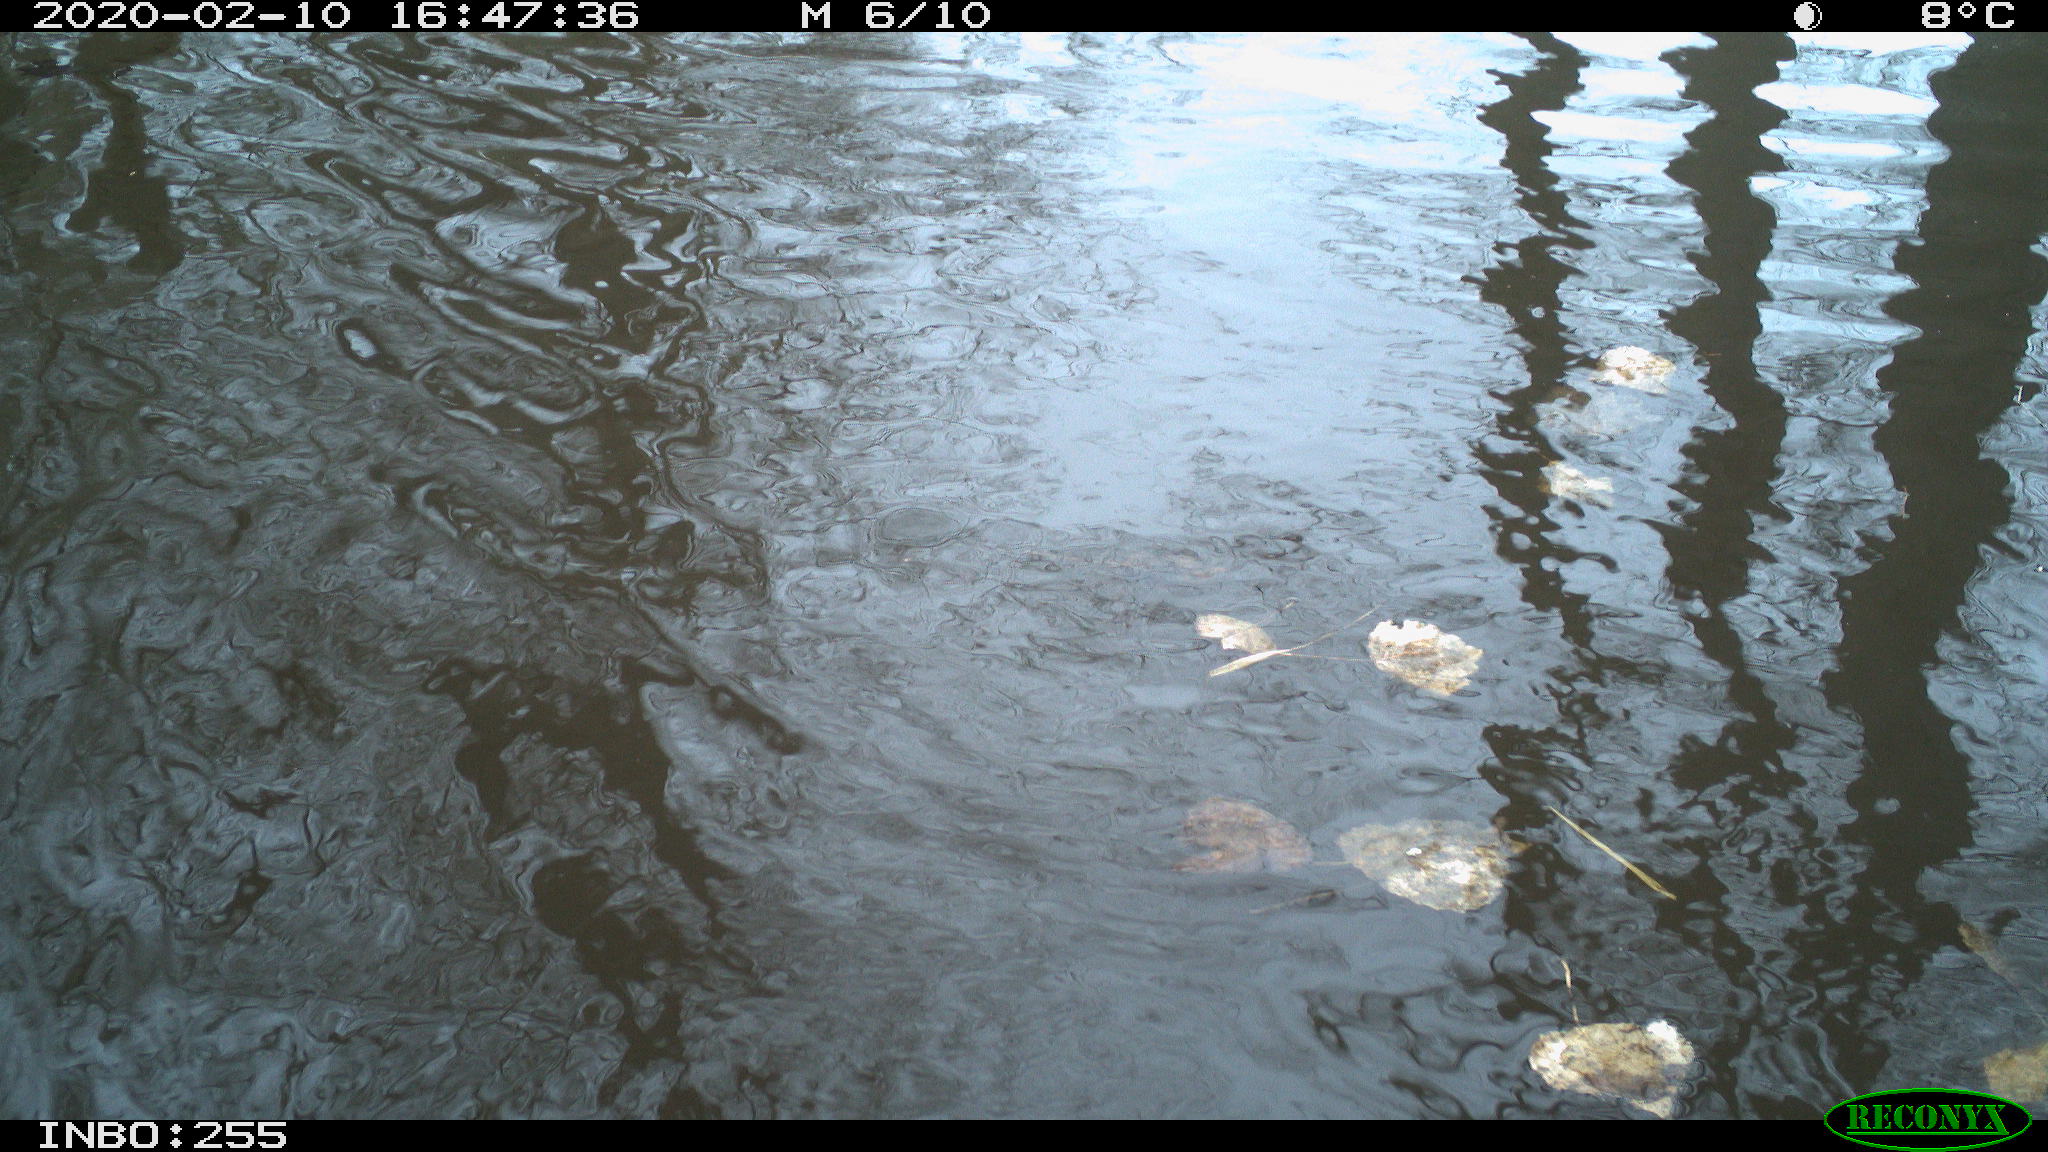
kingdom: Animalia
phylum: Chordata
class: Aves
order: Gruiformes
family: Rallidae
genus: Fulica
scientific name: Fulica atra
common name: Eurasian coot
